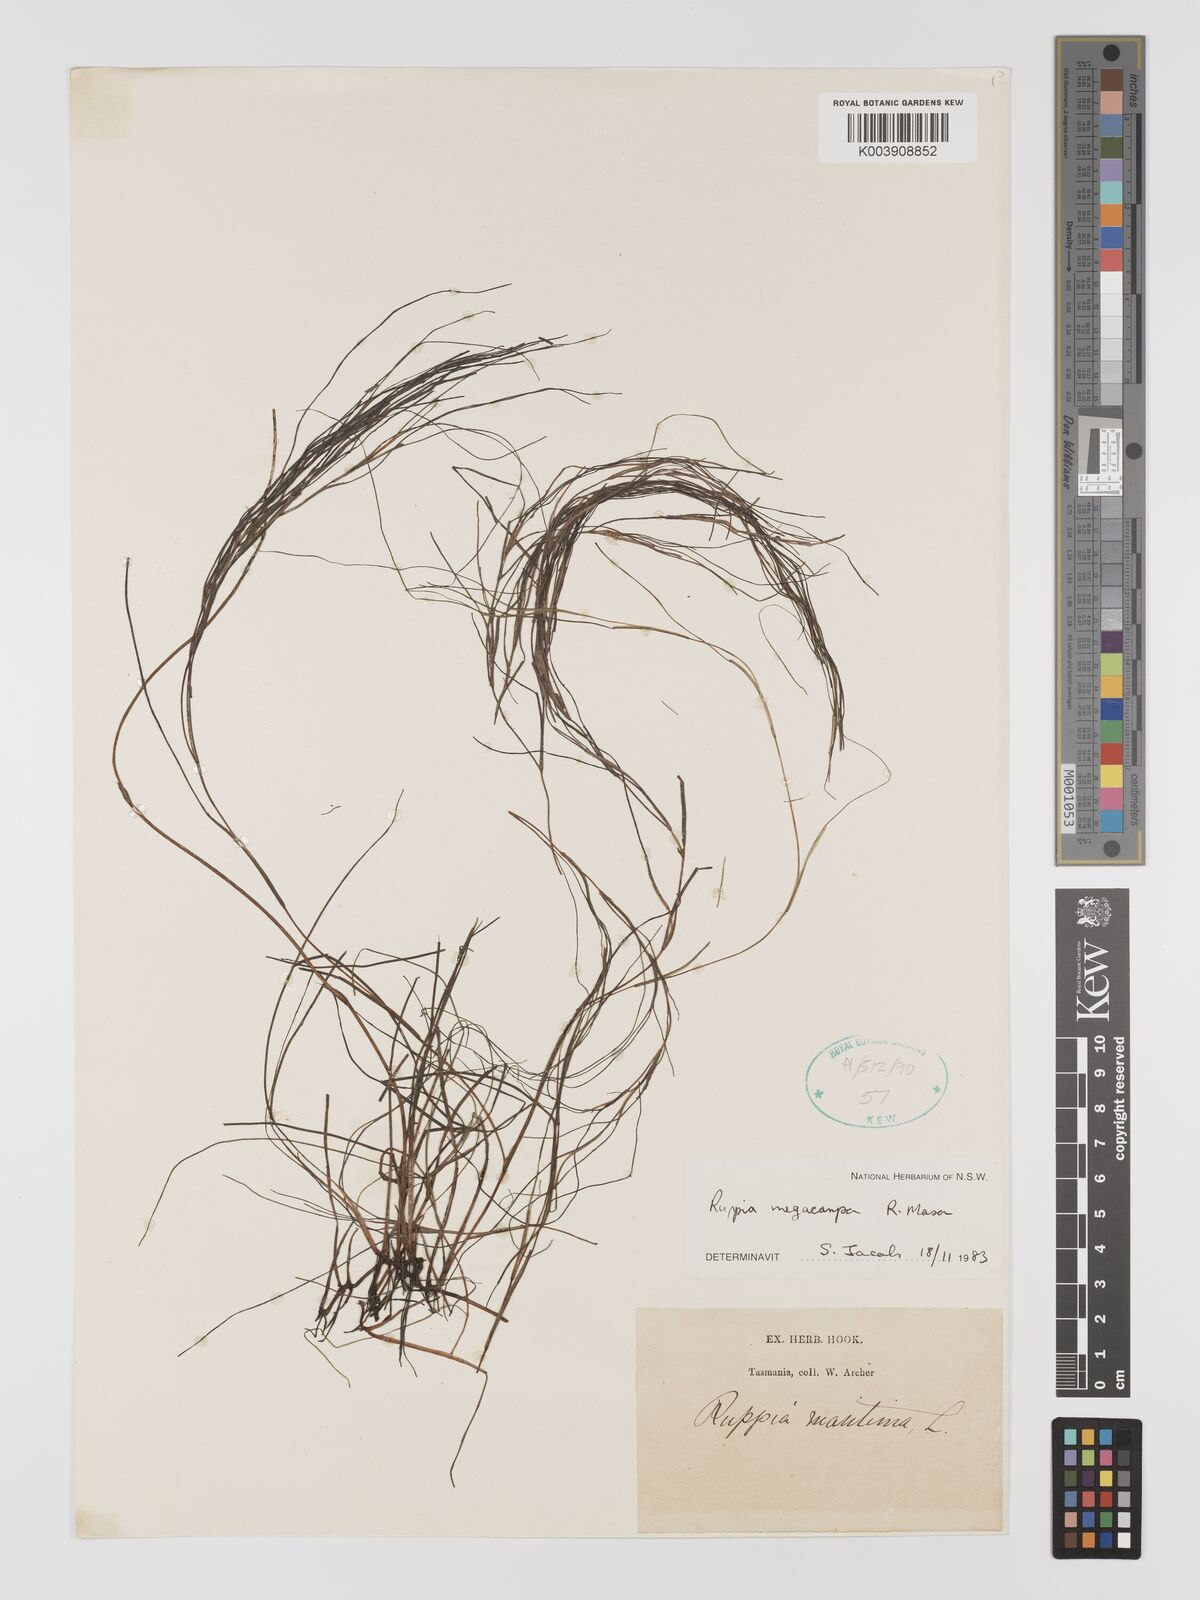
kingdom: Plantae
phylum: Tracheophyta
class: Liliopsida
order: Alismatales
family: Ruppiaceae
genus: Ruppia
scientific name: Ruppia megacarpa
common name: Large-fruit seatassel
